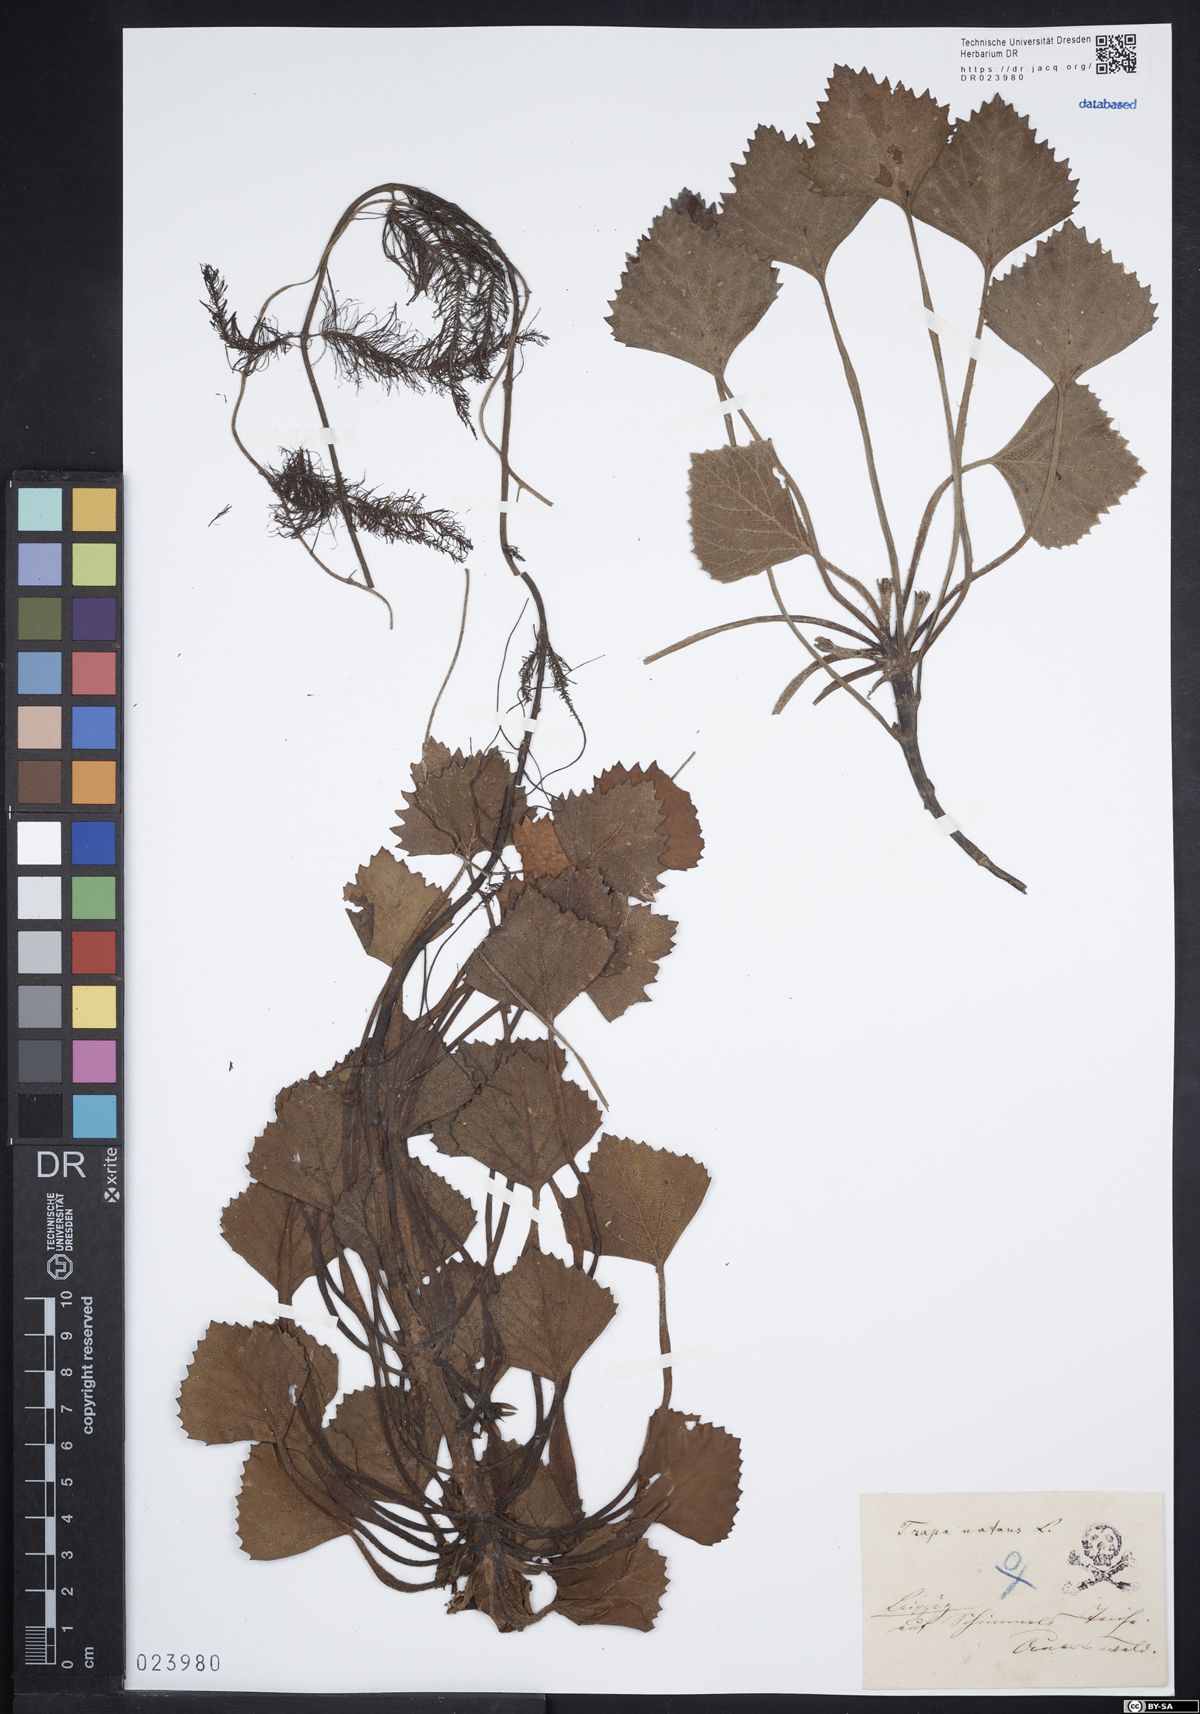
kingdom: Plantae
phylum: Tracheophyta
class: Magnoliopsida
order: Myrtales
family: Lythraceae
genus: Trapa
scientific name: Trapa natans
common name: Water chestnut
